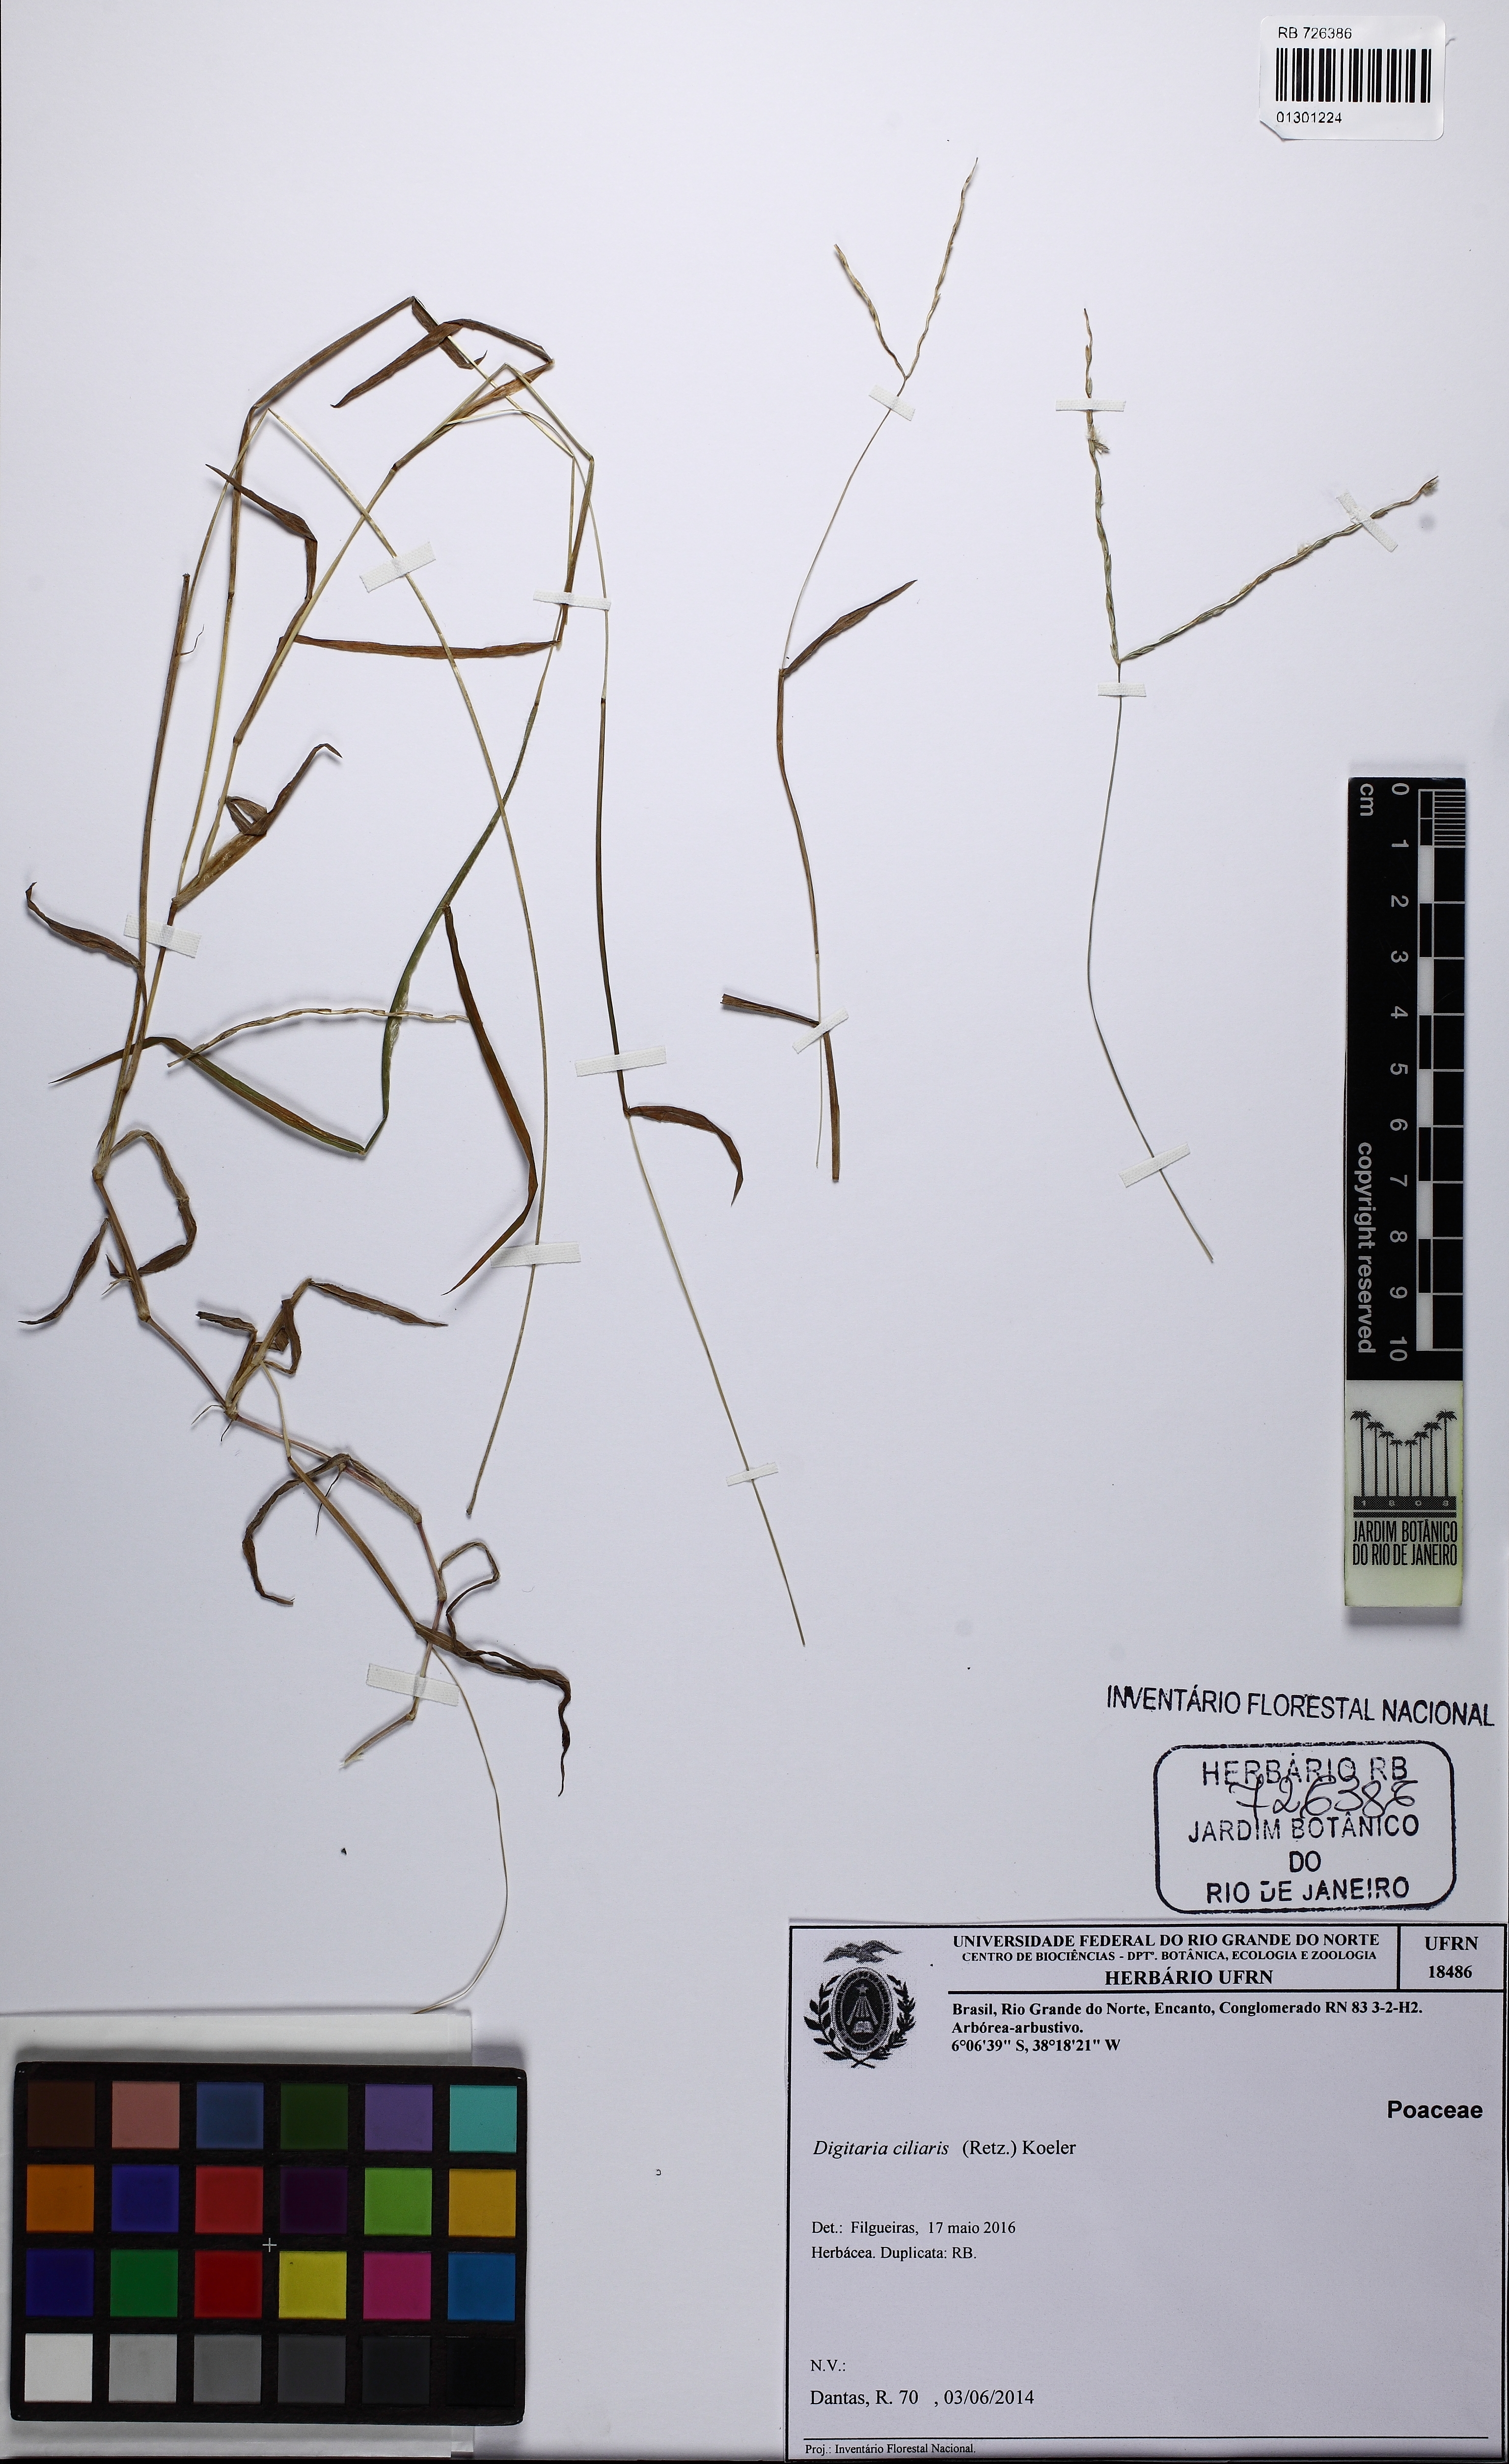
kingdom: Plantae
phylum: Tracheophyta
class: Liliopsida
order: Poales
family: Poaceae
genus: Digitaria
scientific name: Digitaria ciliaris
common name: Tropical finger-grass
